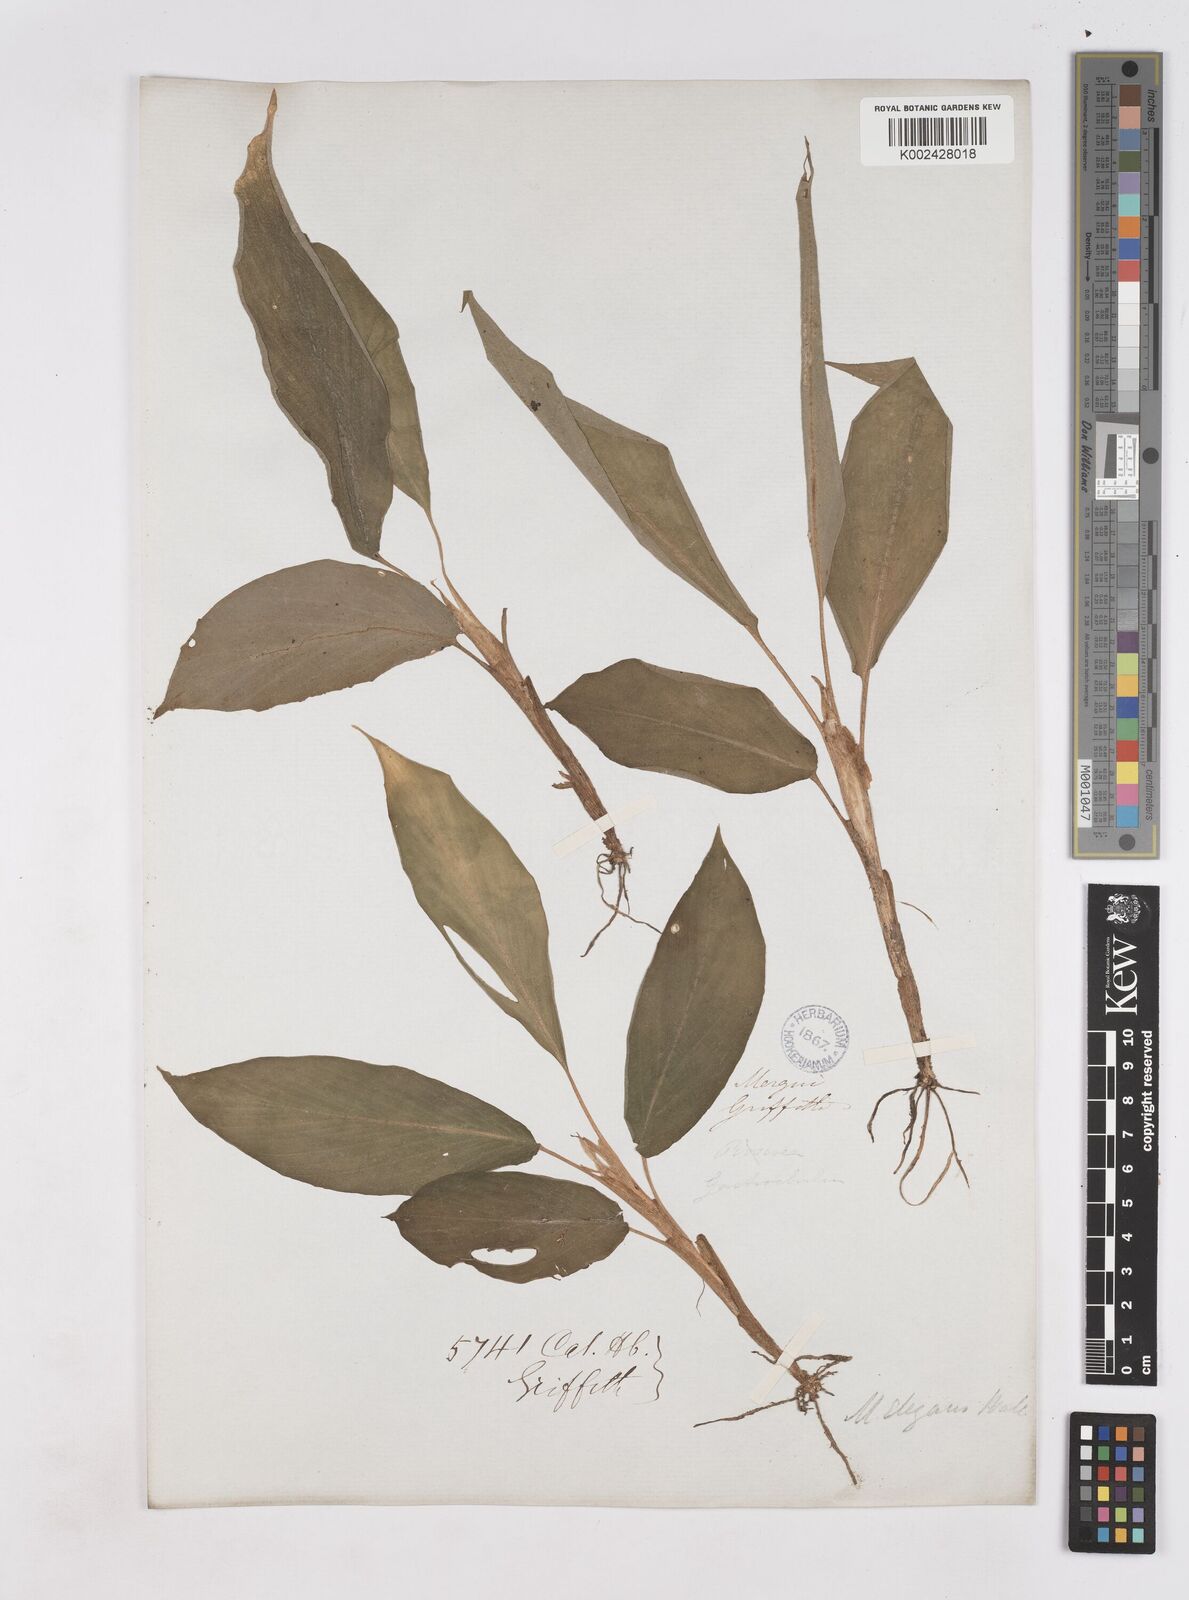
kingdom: Plantae
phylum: Tracheophyta
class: Liliopsida
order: Zingiberales
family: Zingiberaceae
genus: Kaempferia
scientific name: Kaempferia elegans
